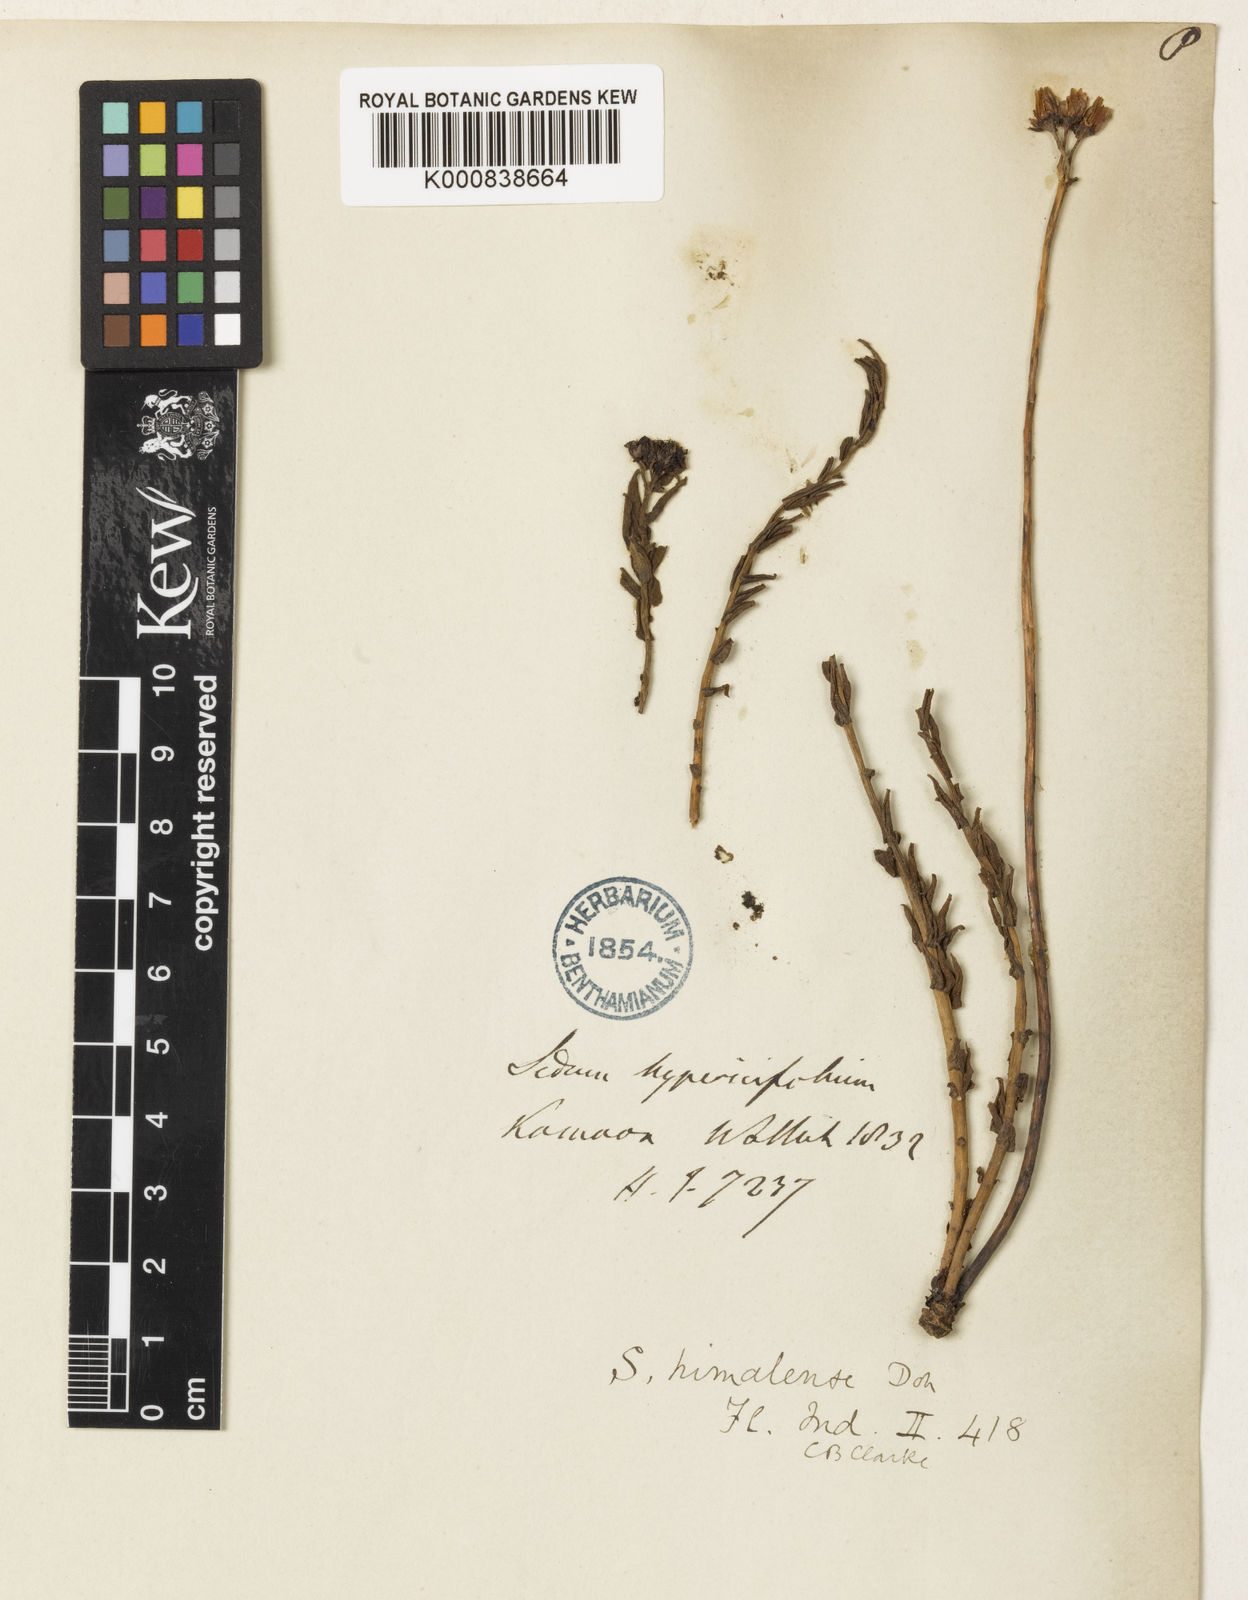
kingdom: Plantae
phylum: Tracheophyta
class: Magnoliopsida
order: Saxifragales
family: Crassulaceae
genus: Rhodiola
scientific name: Rhodiola himalensis
